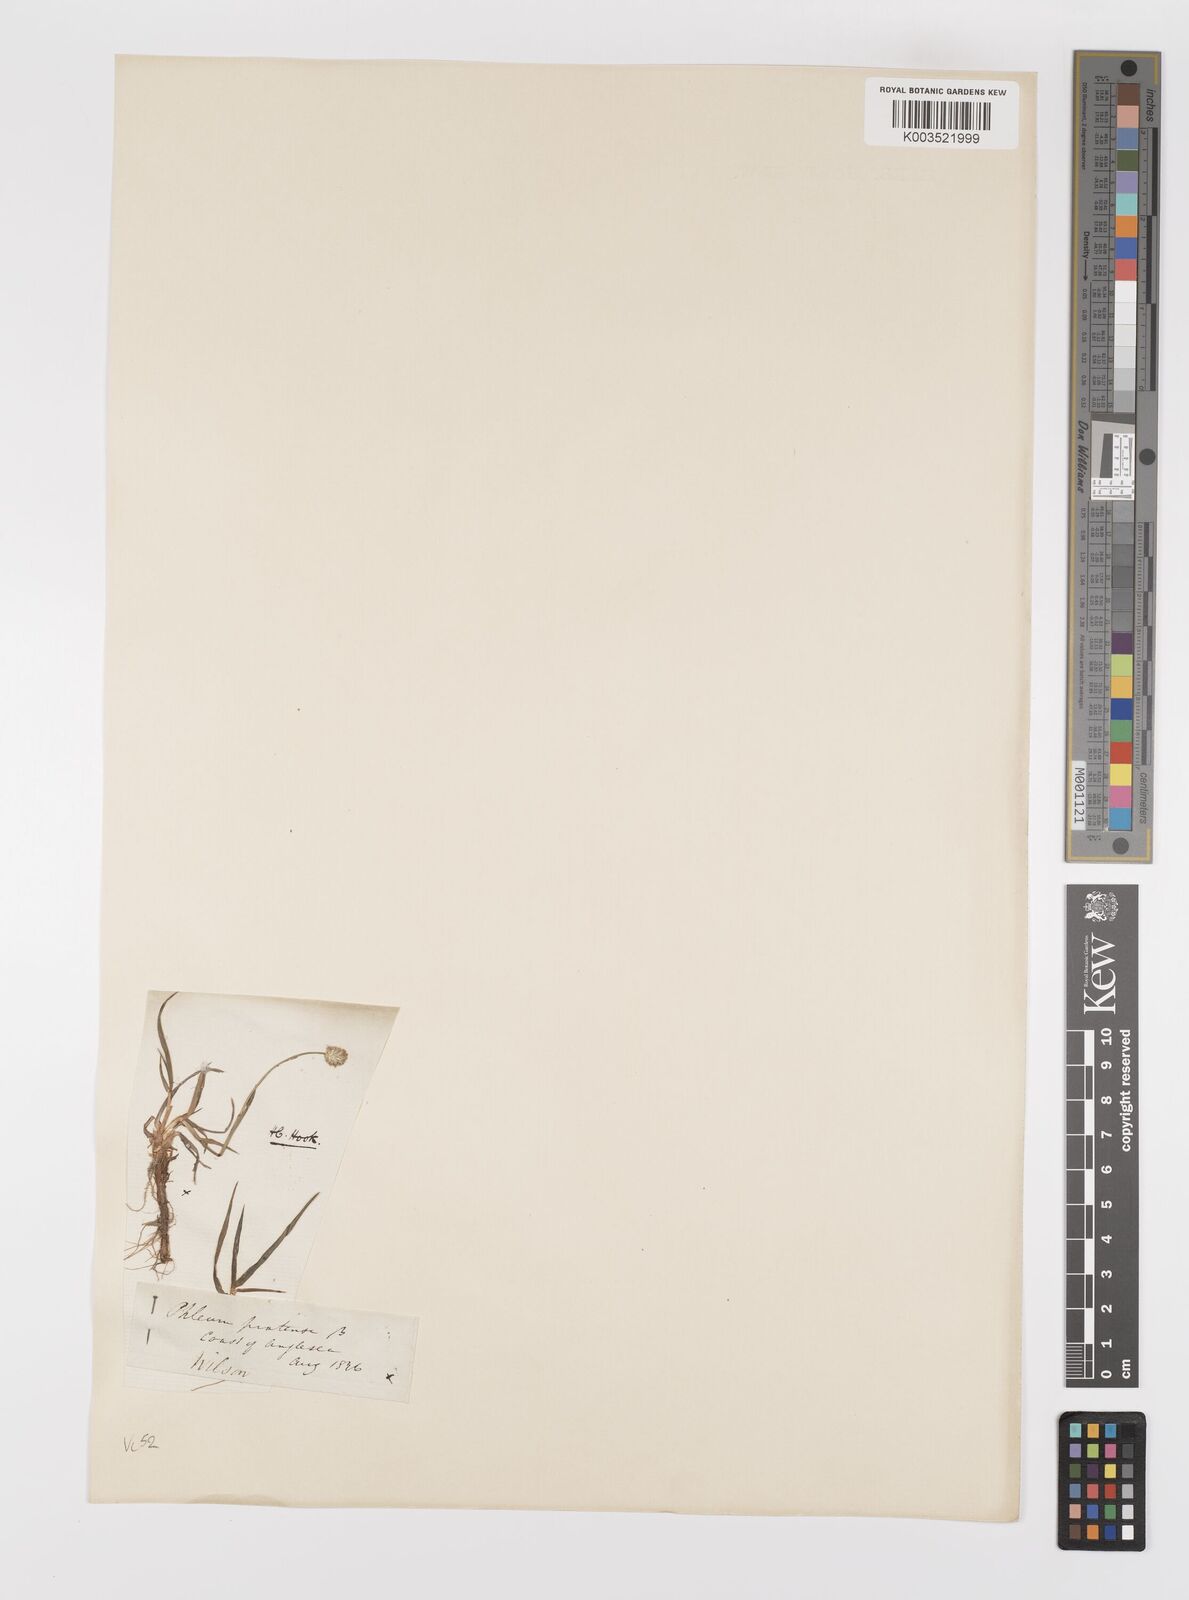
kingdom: Plantae
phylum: Tracheophyta
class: Liliopsida
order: Poales
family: Poaceae
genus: Phleum
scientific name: Phleum bertolonii
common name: Smaller cat's-tail
